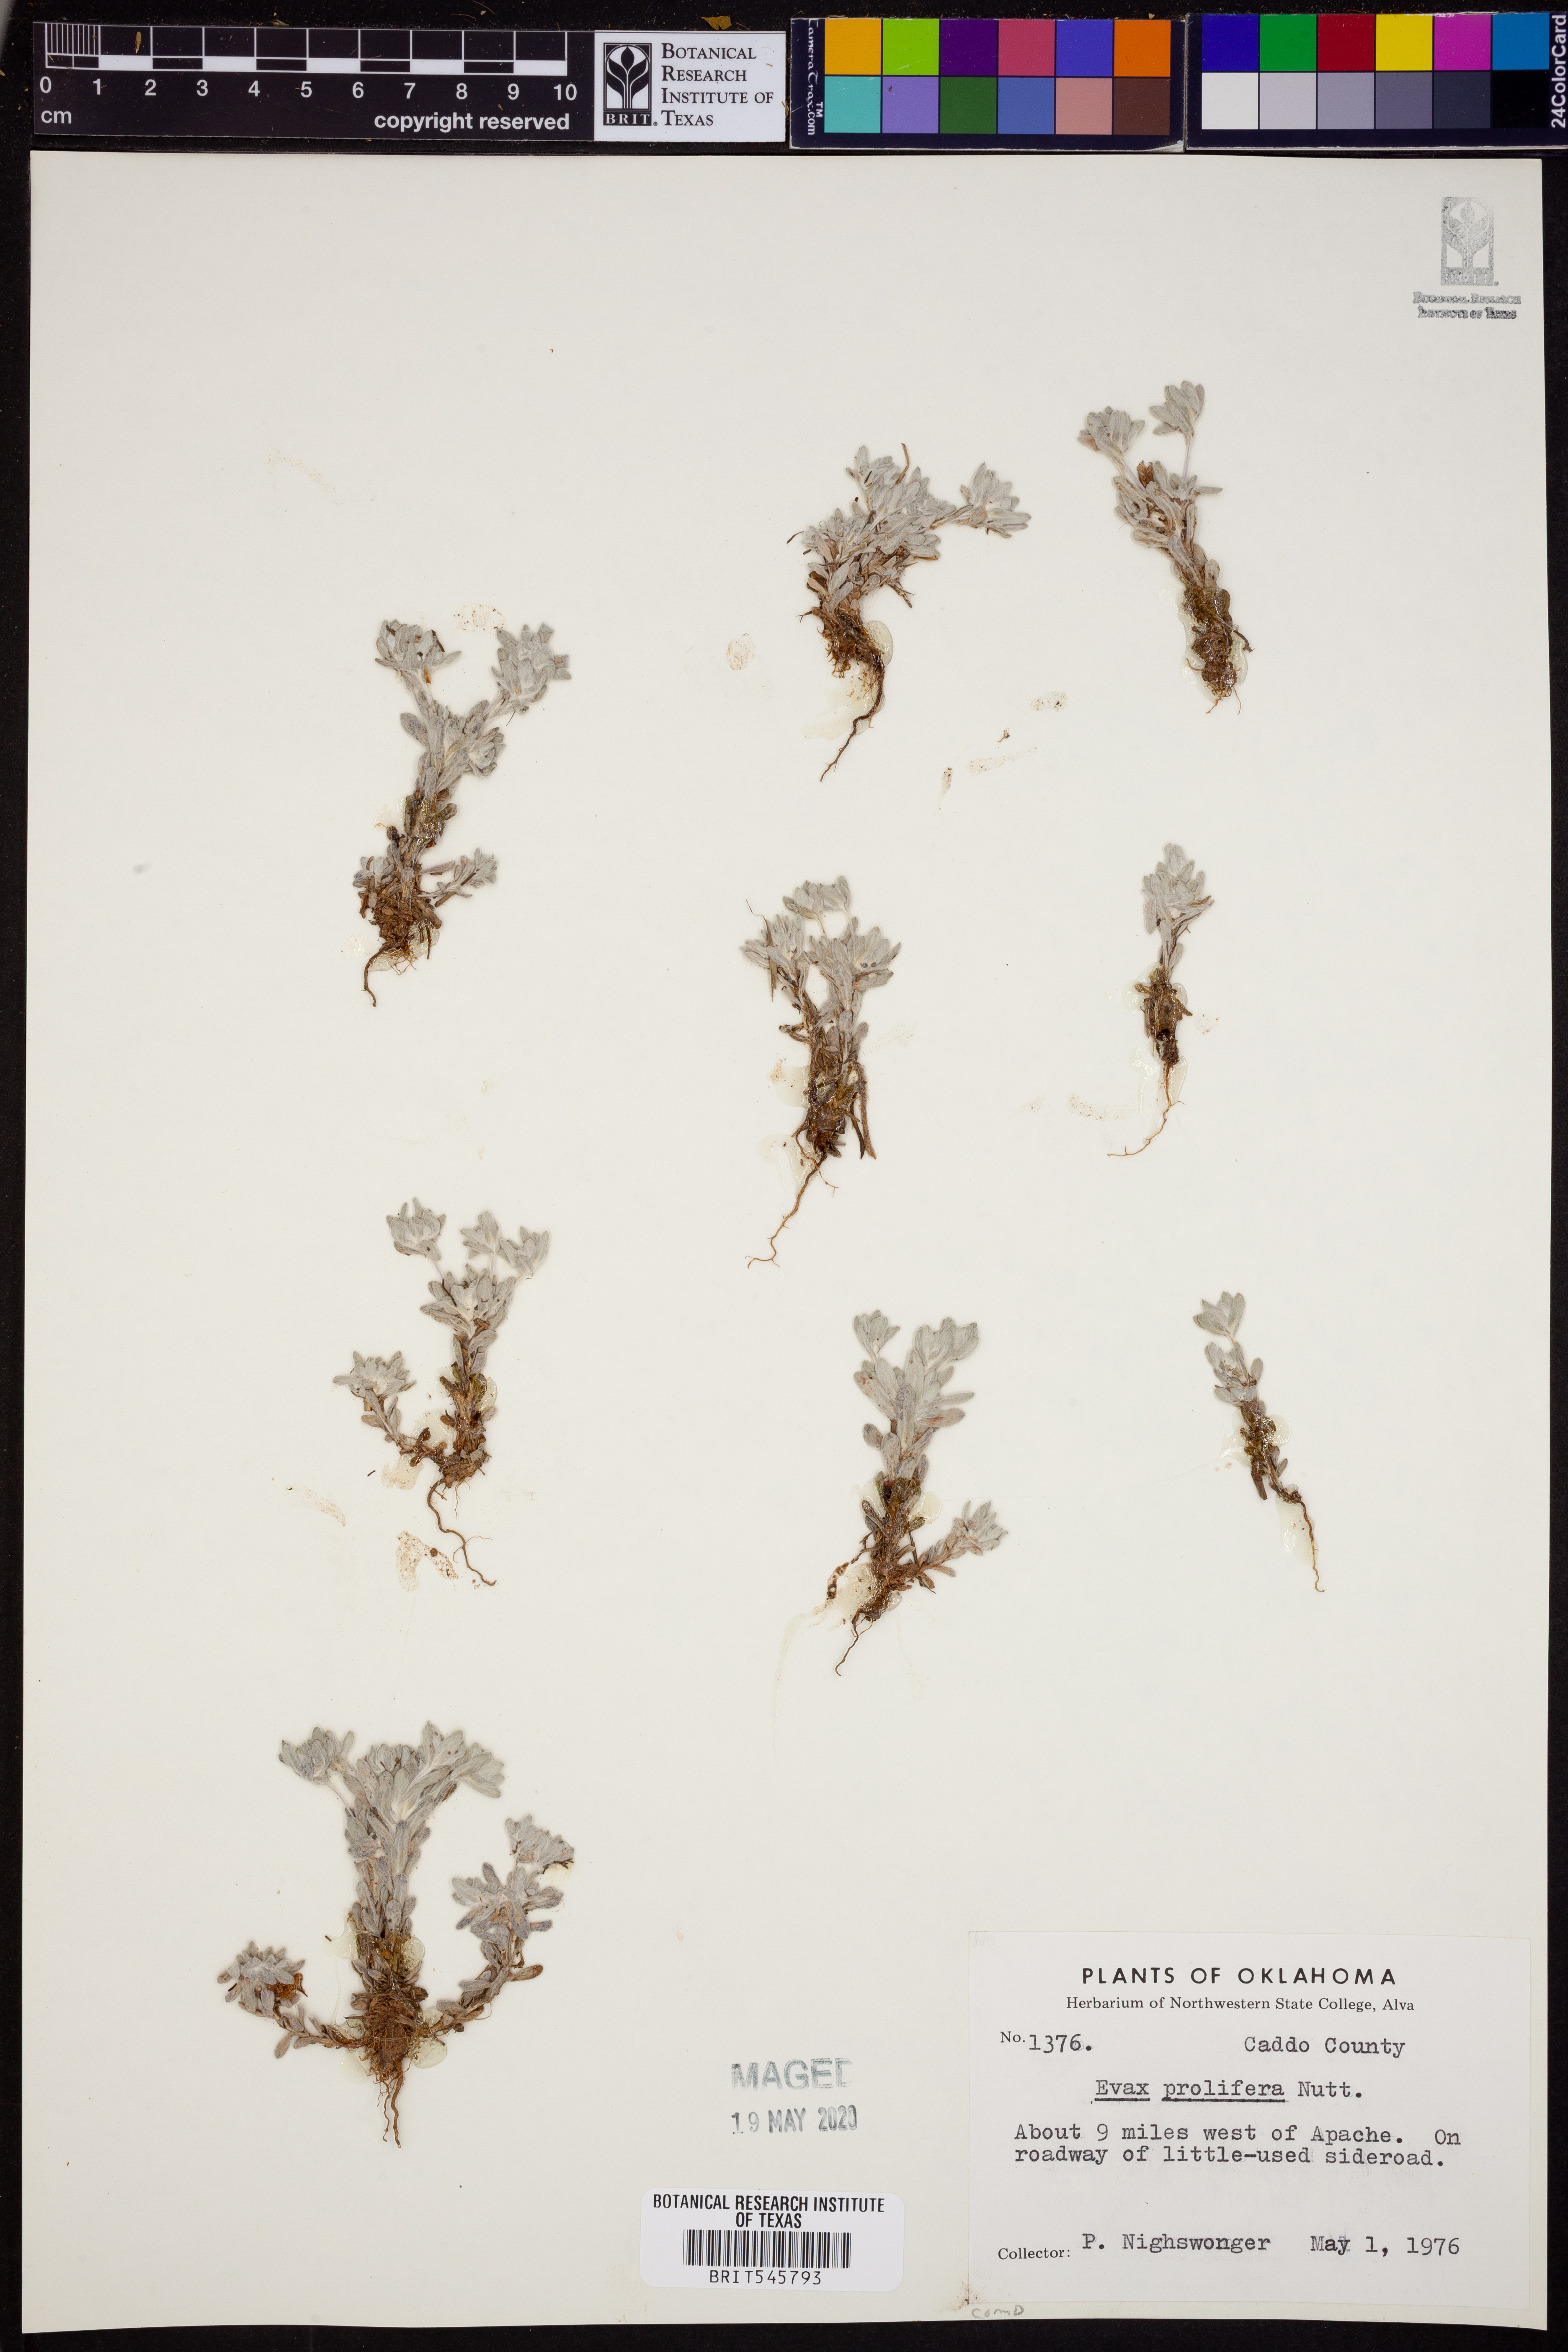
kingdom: Plantae
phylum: Tracheophyta
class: Magnoliopsida
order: Asterales
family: Asteraceae
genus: Diaperia
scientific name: Diaperia prolifera
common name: Big-head rabbit-tobacco
